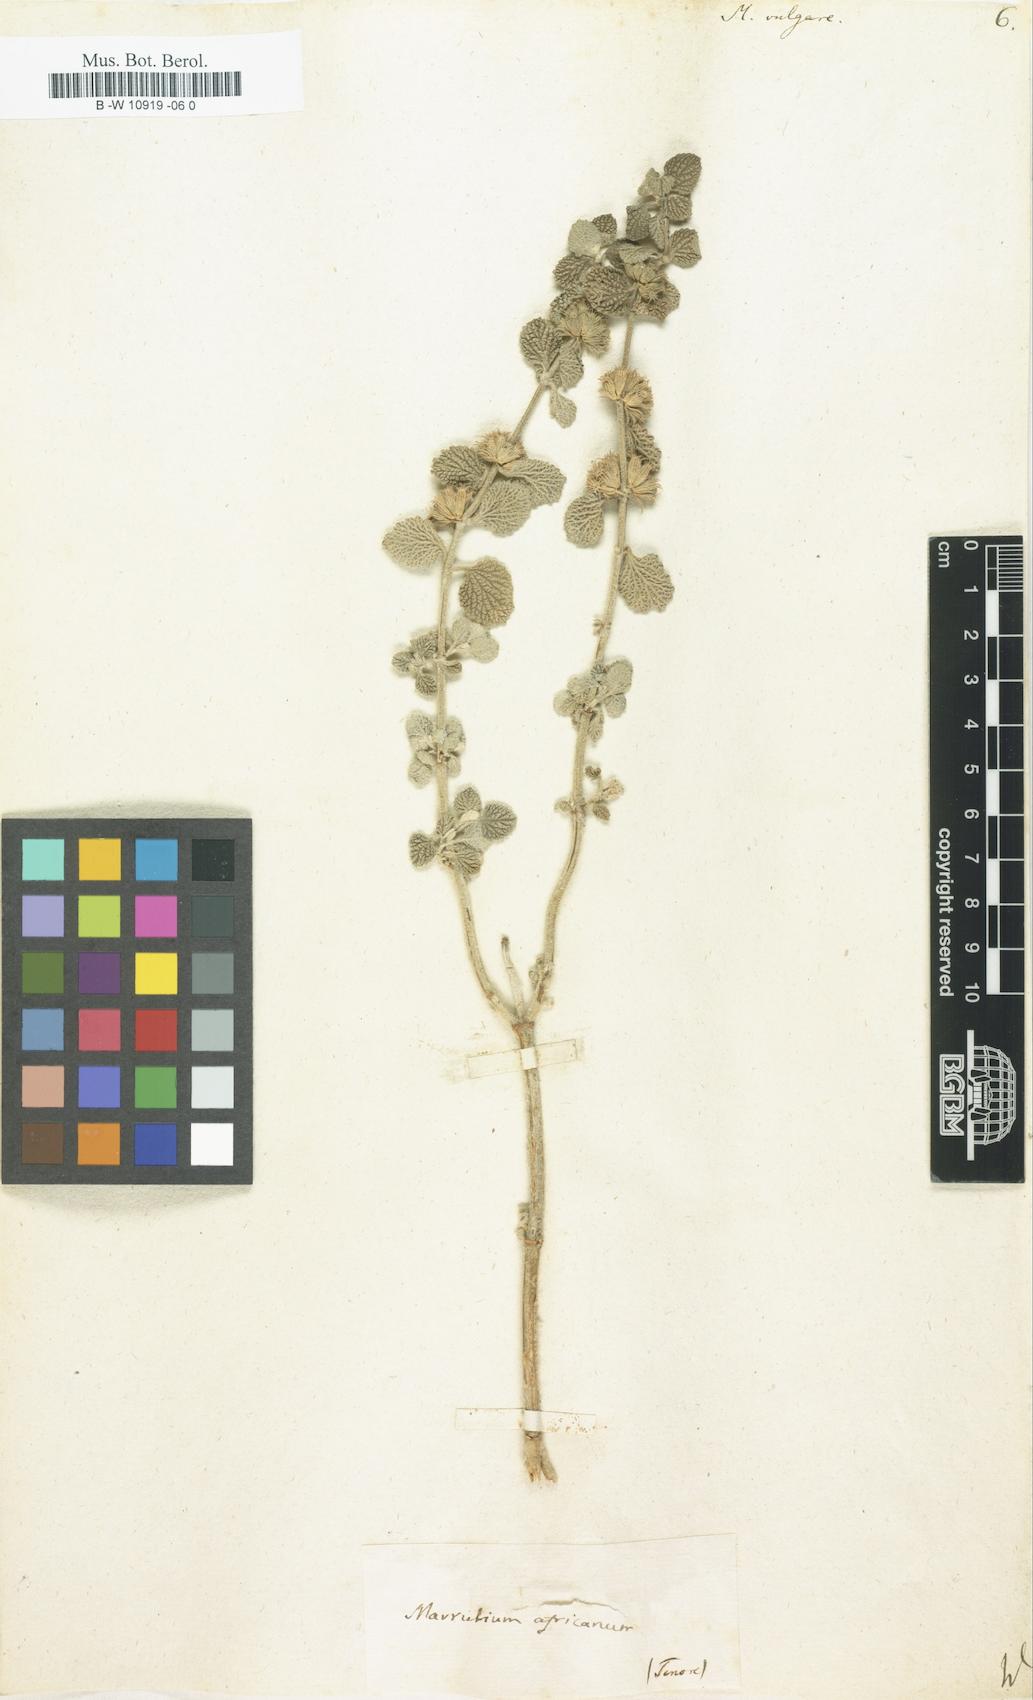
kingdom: Plantae
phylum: Tracheophyta
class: Magnoliopsida
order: Lamiales
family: Lamiaceae
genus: Marrubium
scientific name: Marrubium vulgare
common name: Horehound
